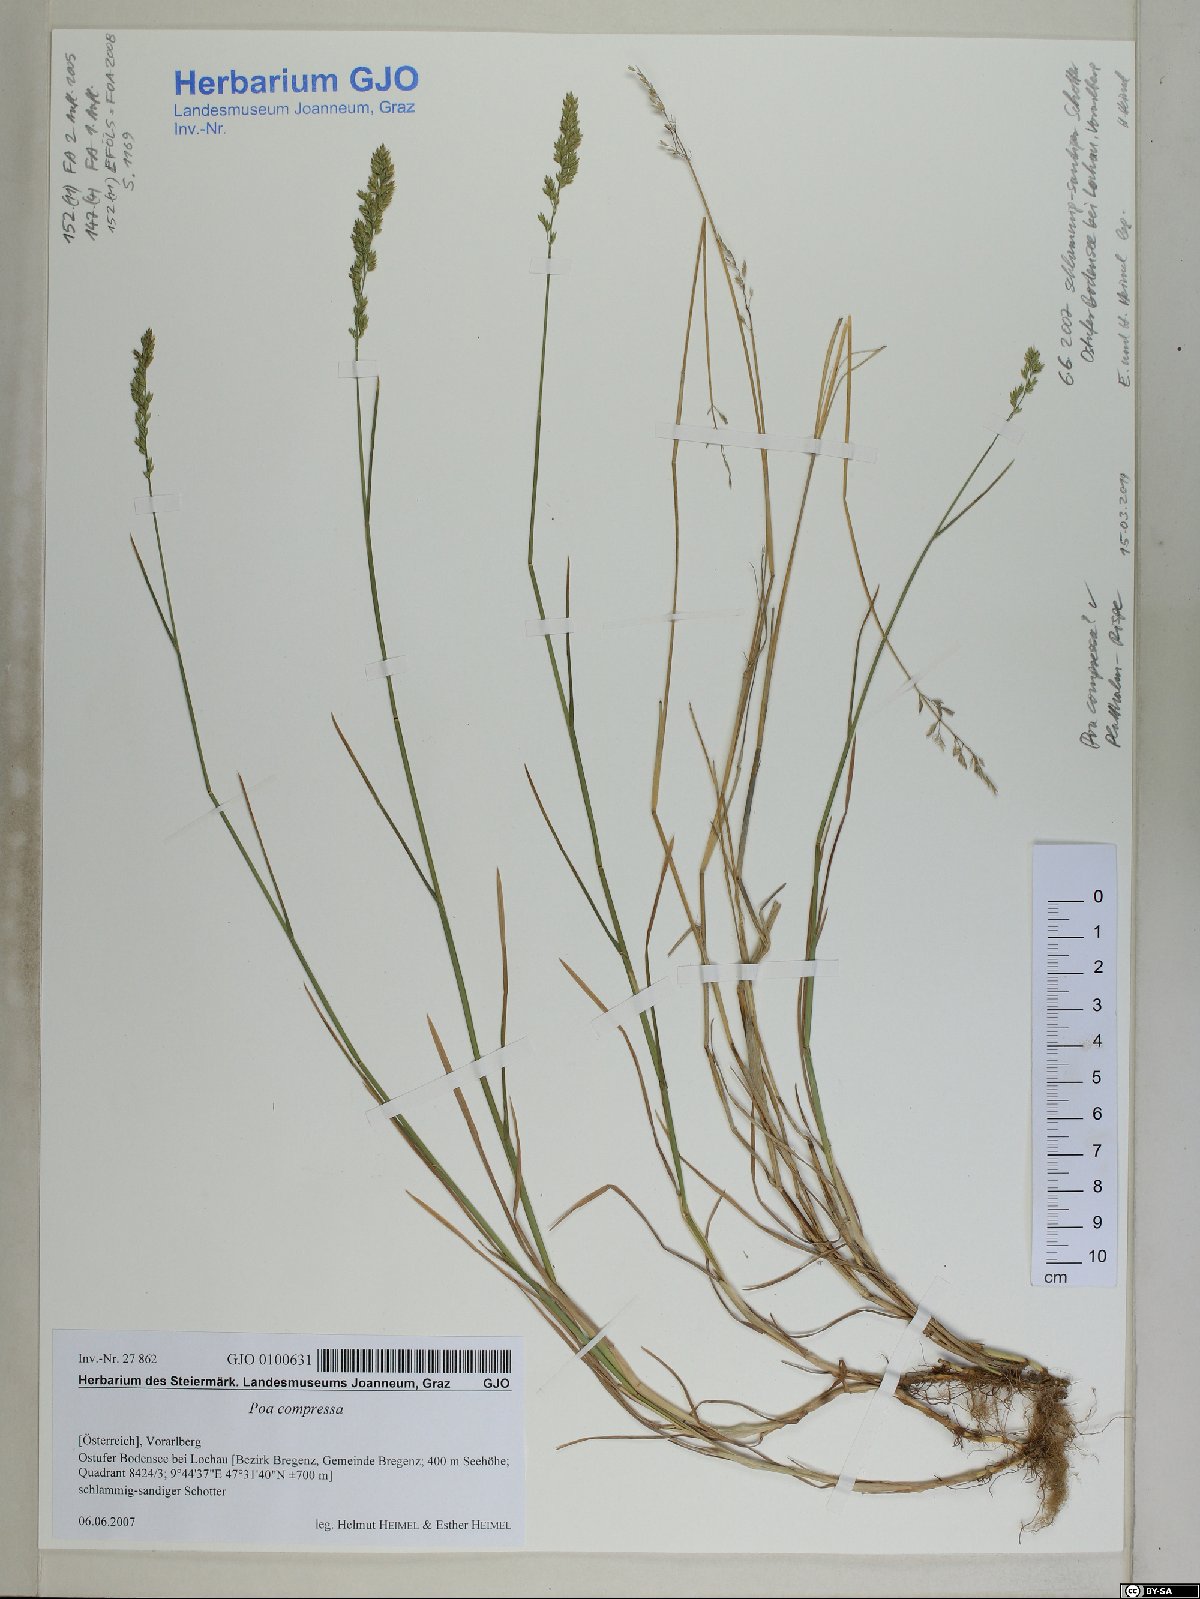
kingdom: Plantae
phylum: Tracheophyta
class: Liliopsida
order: Poales
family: Poaceae
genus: Poa
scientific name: Poa compressa
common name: Canada bluegrass
